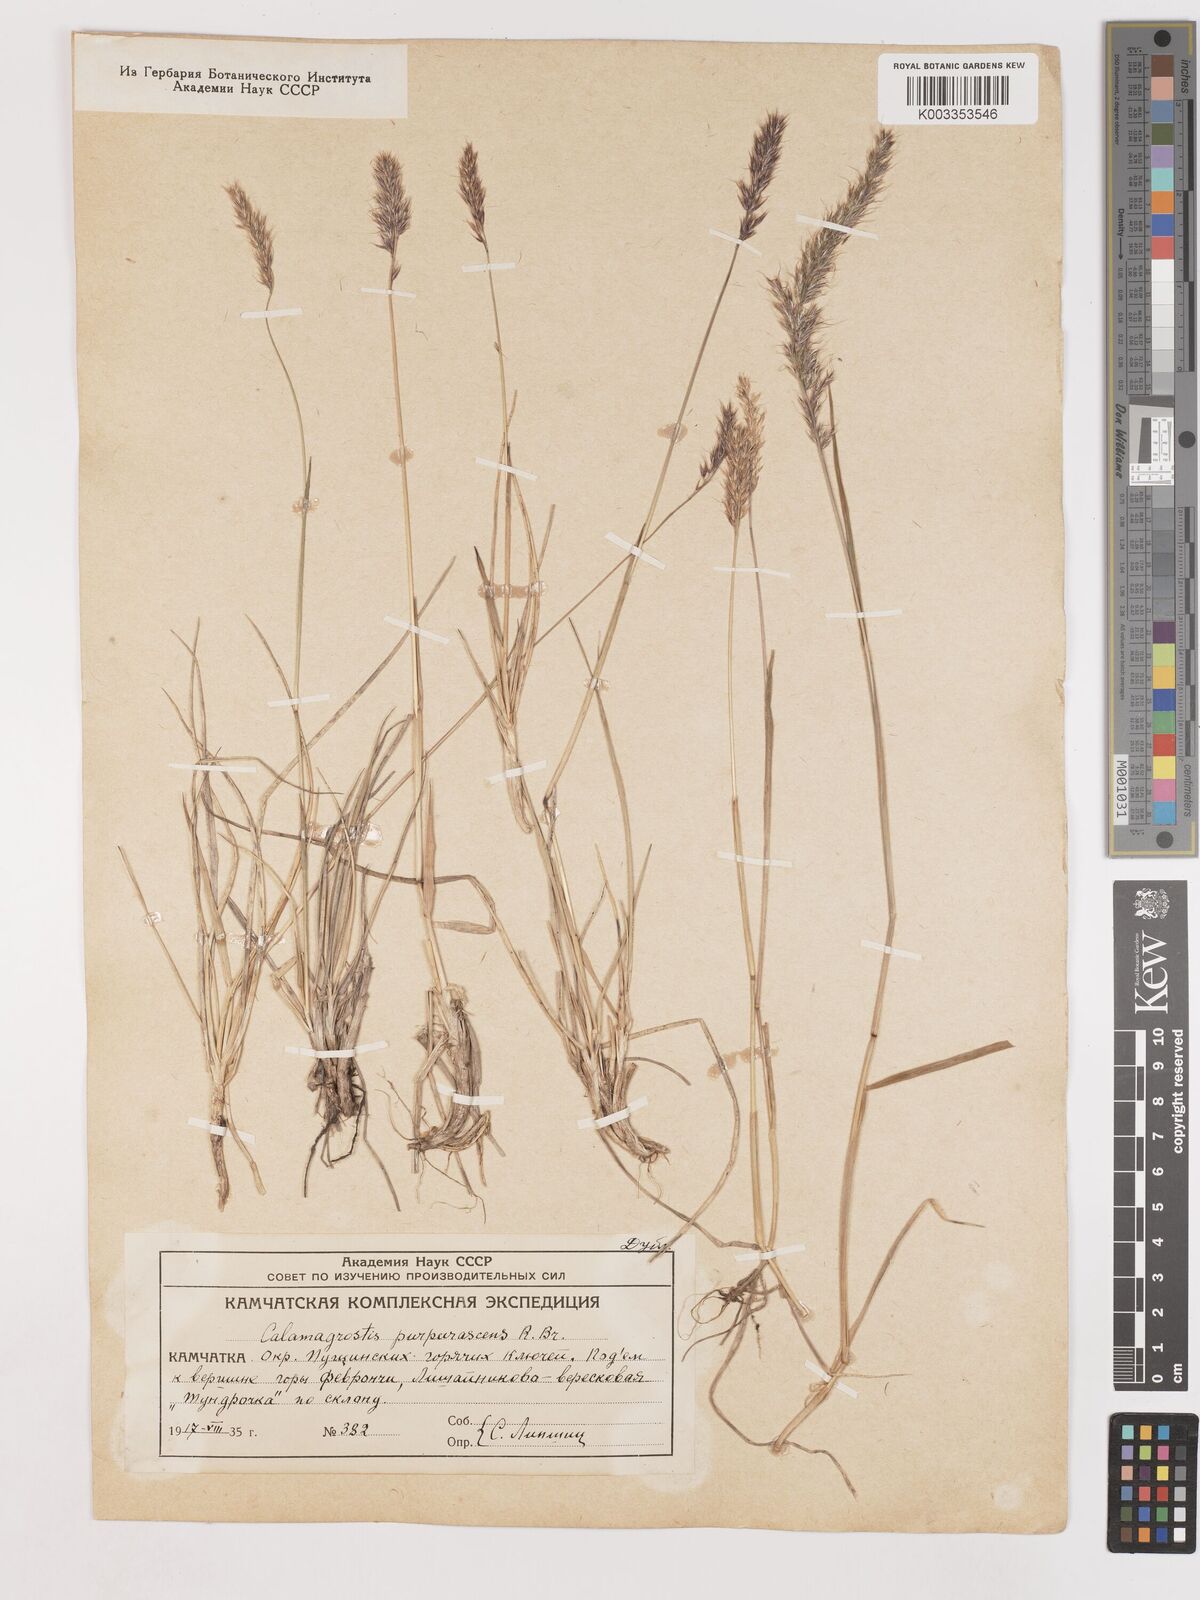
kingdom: Plantae
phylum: Tracheophyta
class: Liliopsida
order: Poales
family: Poaceae
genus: Calamagrostis
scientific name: Calamagrostis purpurascens
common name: Purple reedgrass
